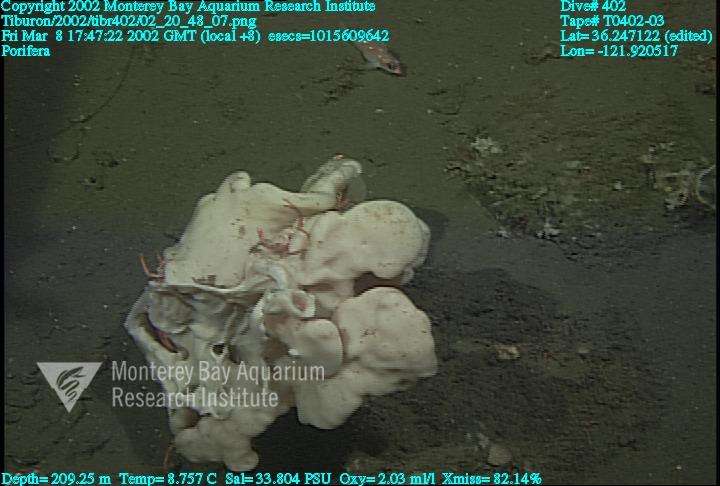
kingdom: Animalia
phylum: Porifera
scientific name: Porifera
